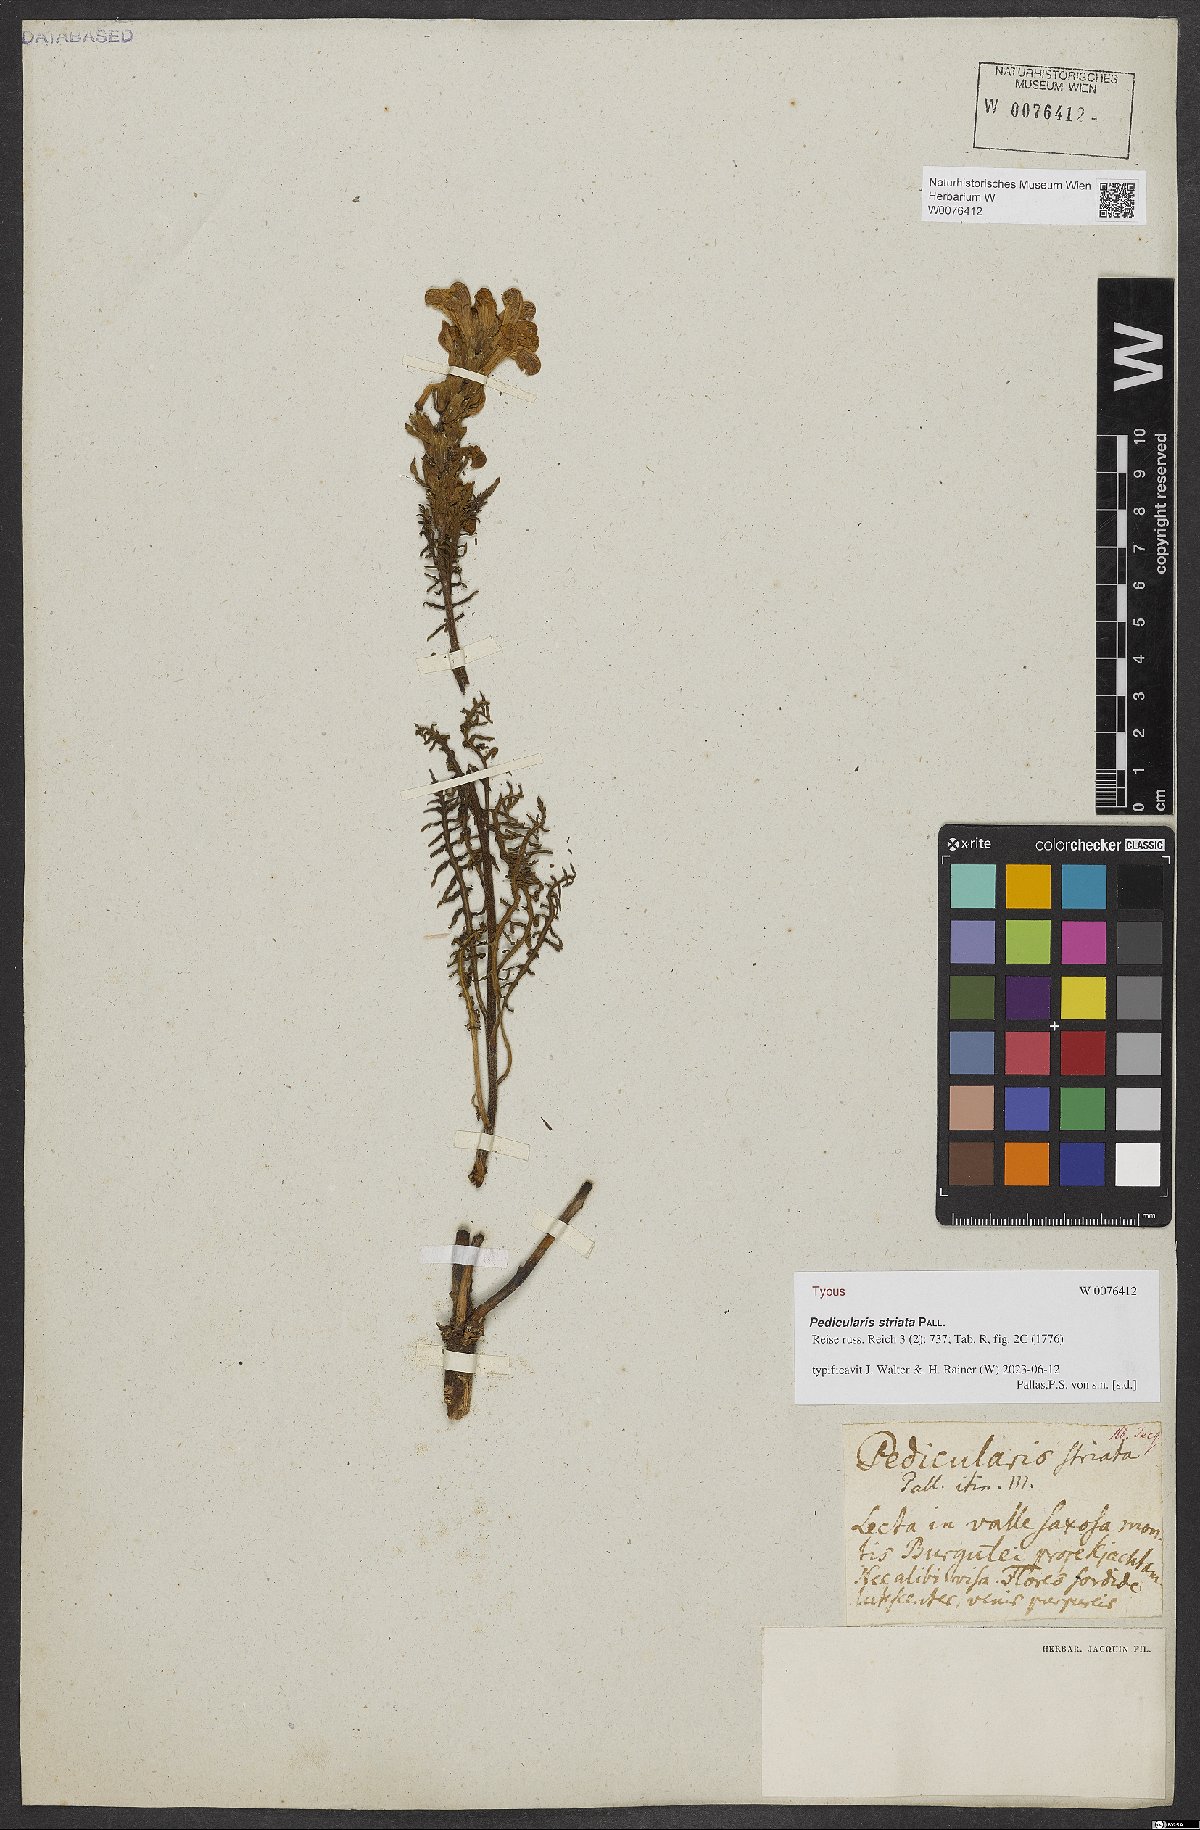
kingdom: Plantae
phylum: Tracheophyta
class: Magnoliopsida
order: Lamiales
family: Orobanchaceae
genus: Pedicularis
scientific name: Pedicularis striata
